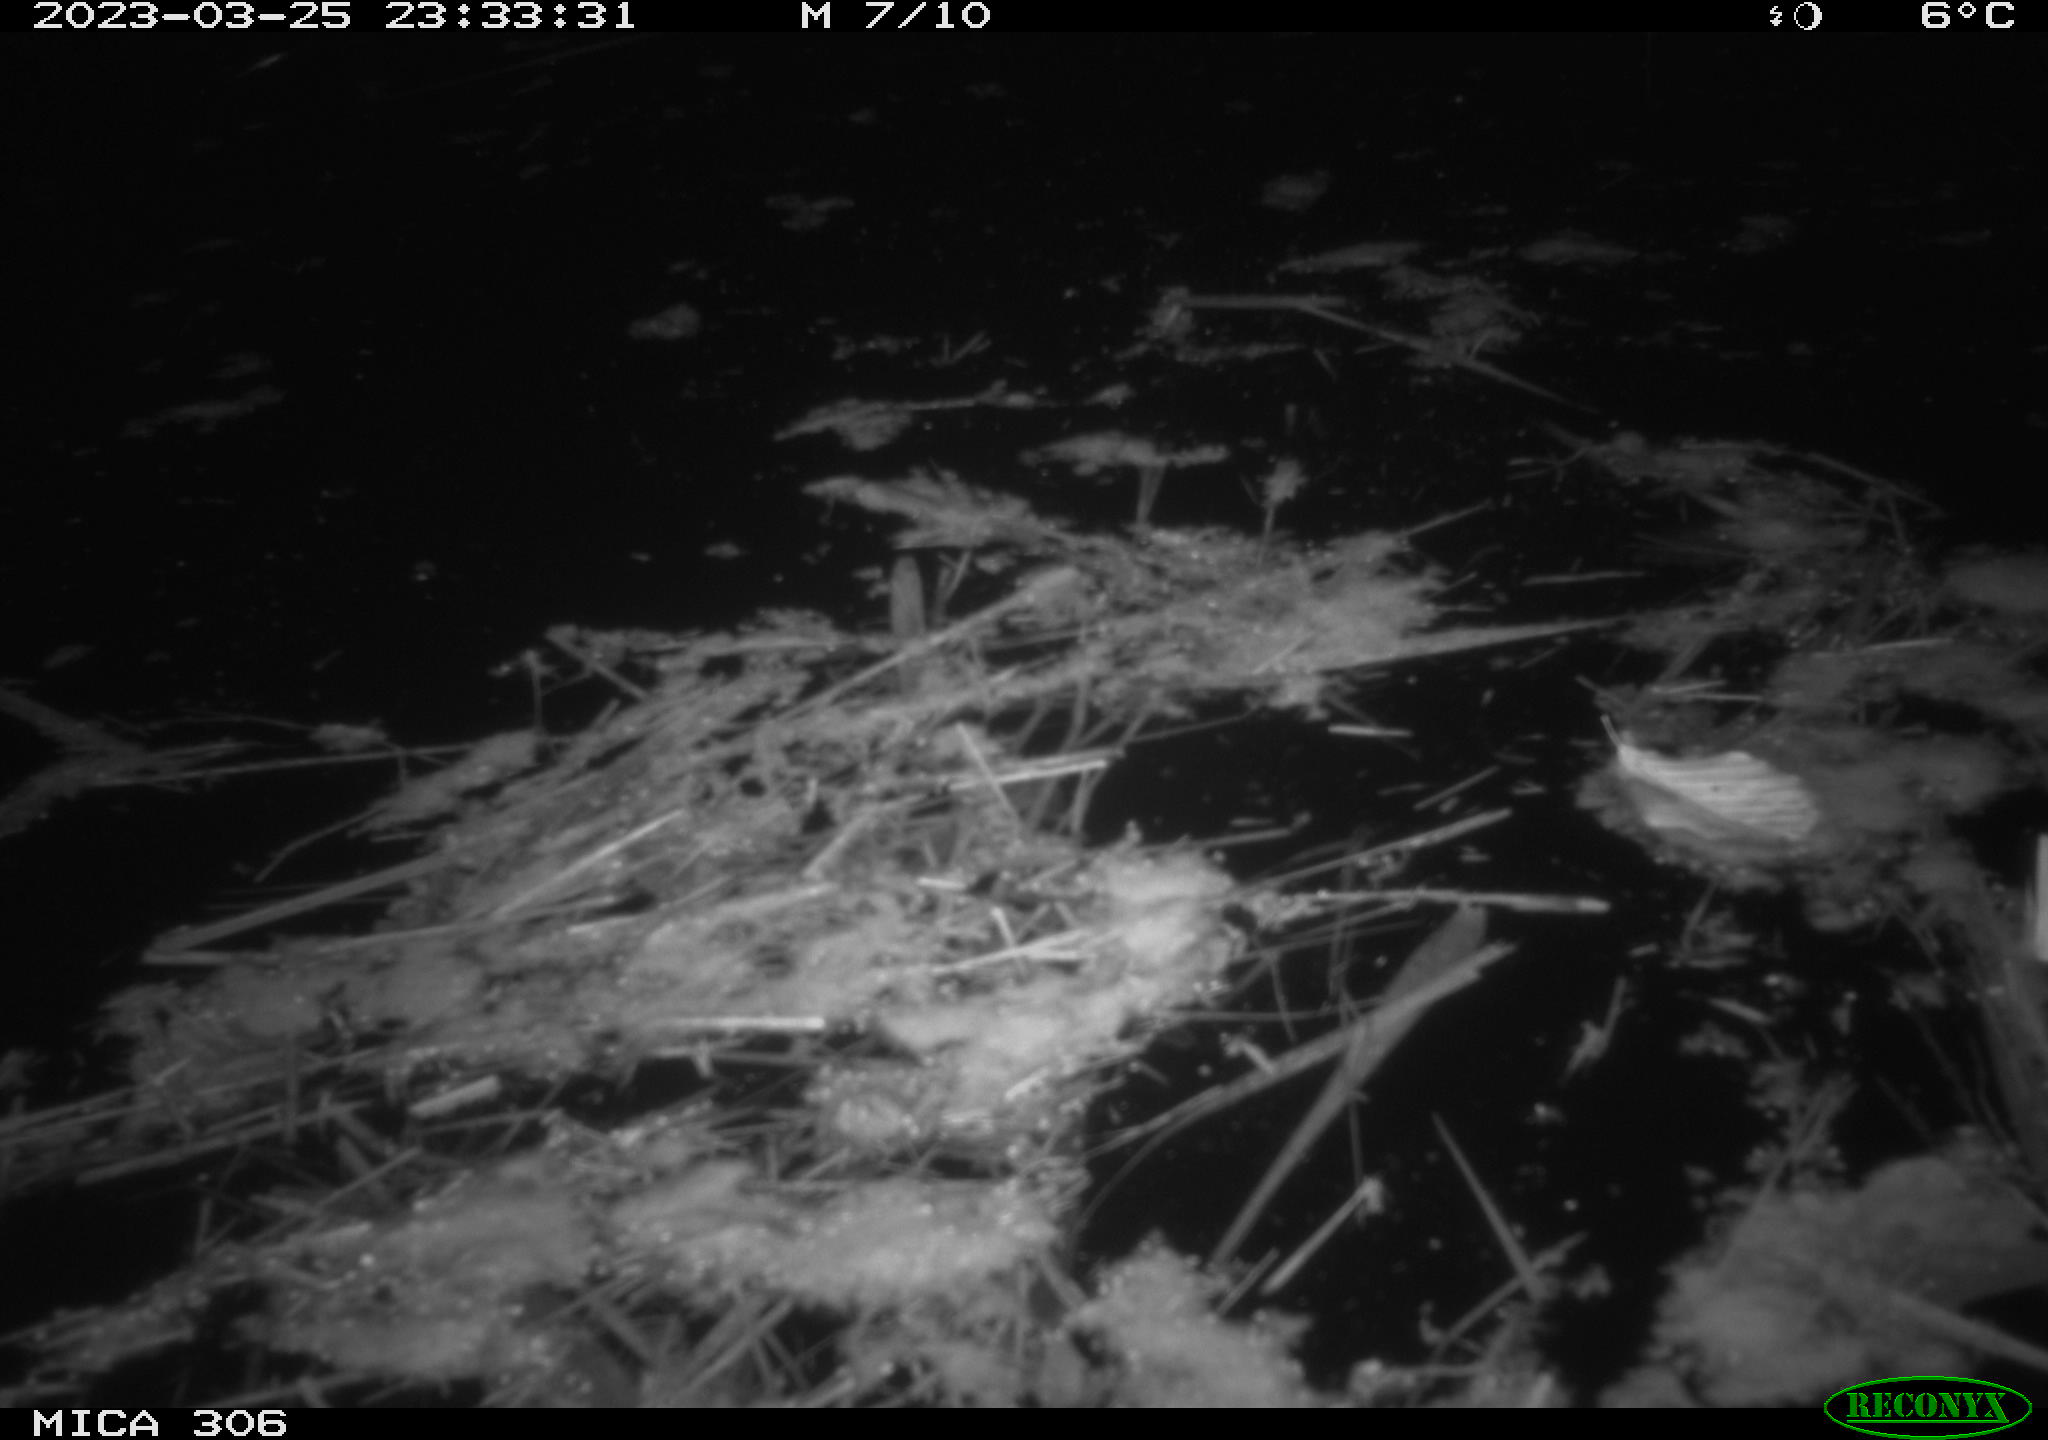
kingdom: Animalia
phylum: Chordata
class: Aves
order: Anseriformes
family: Anatidae
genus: Anas
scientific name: Anas
